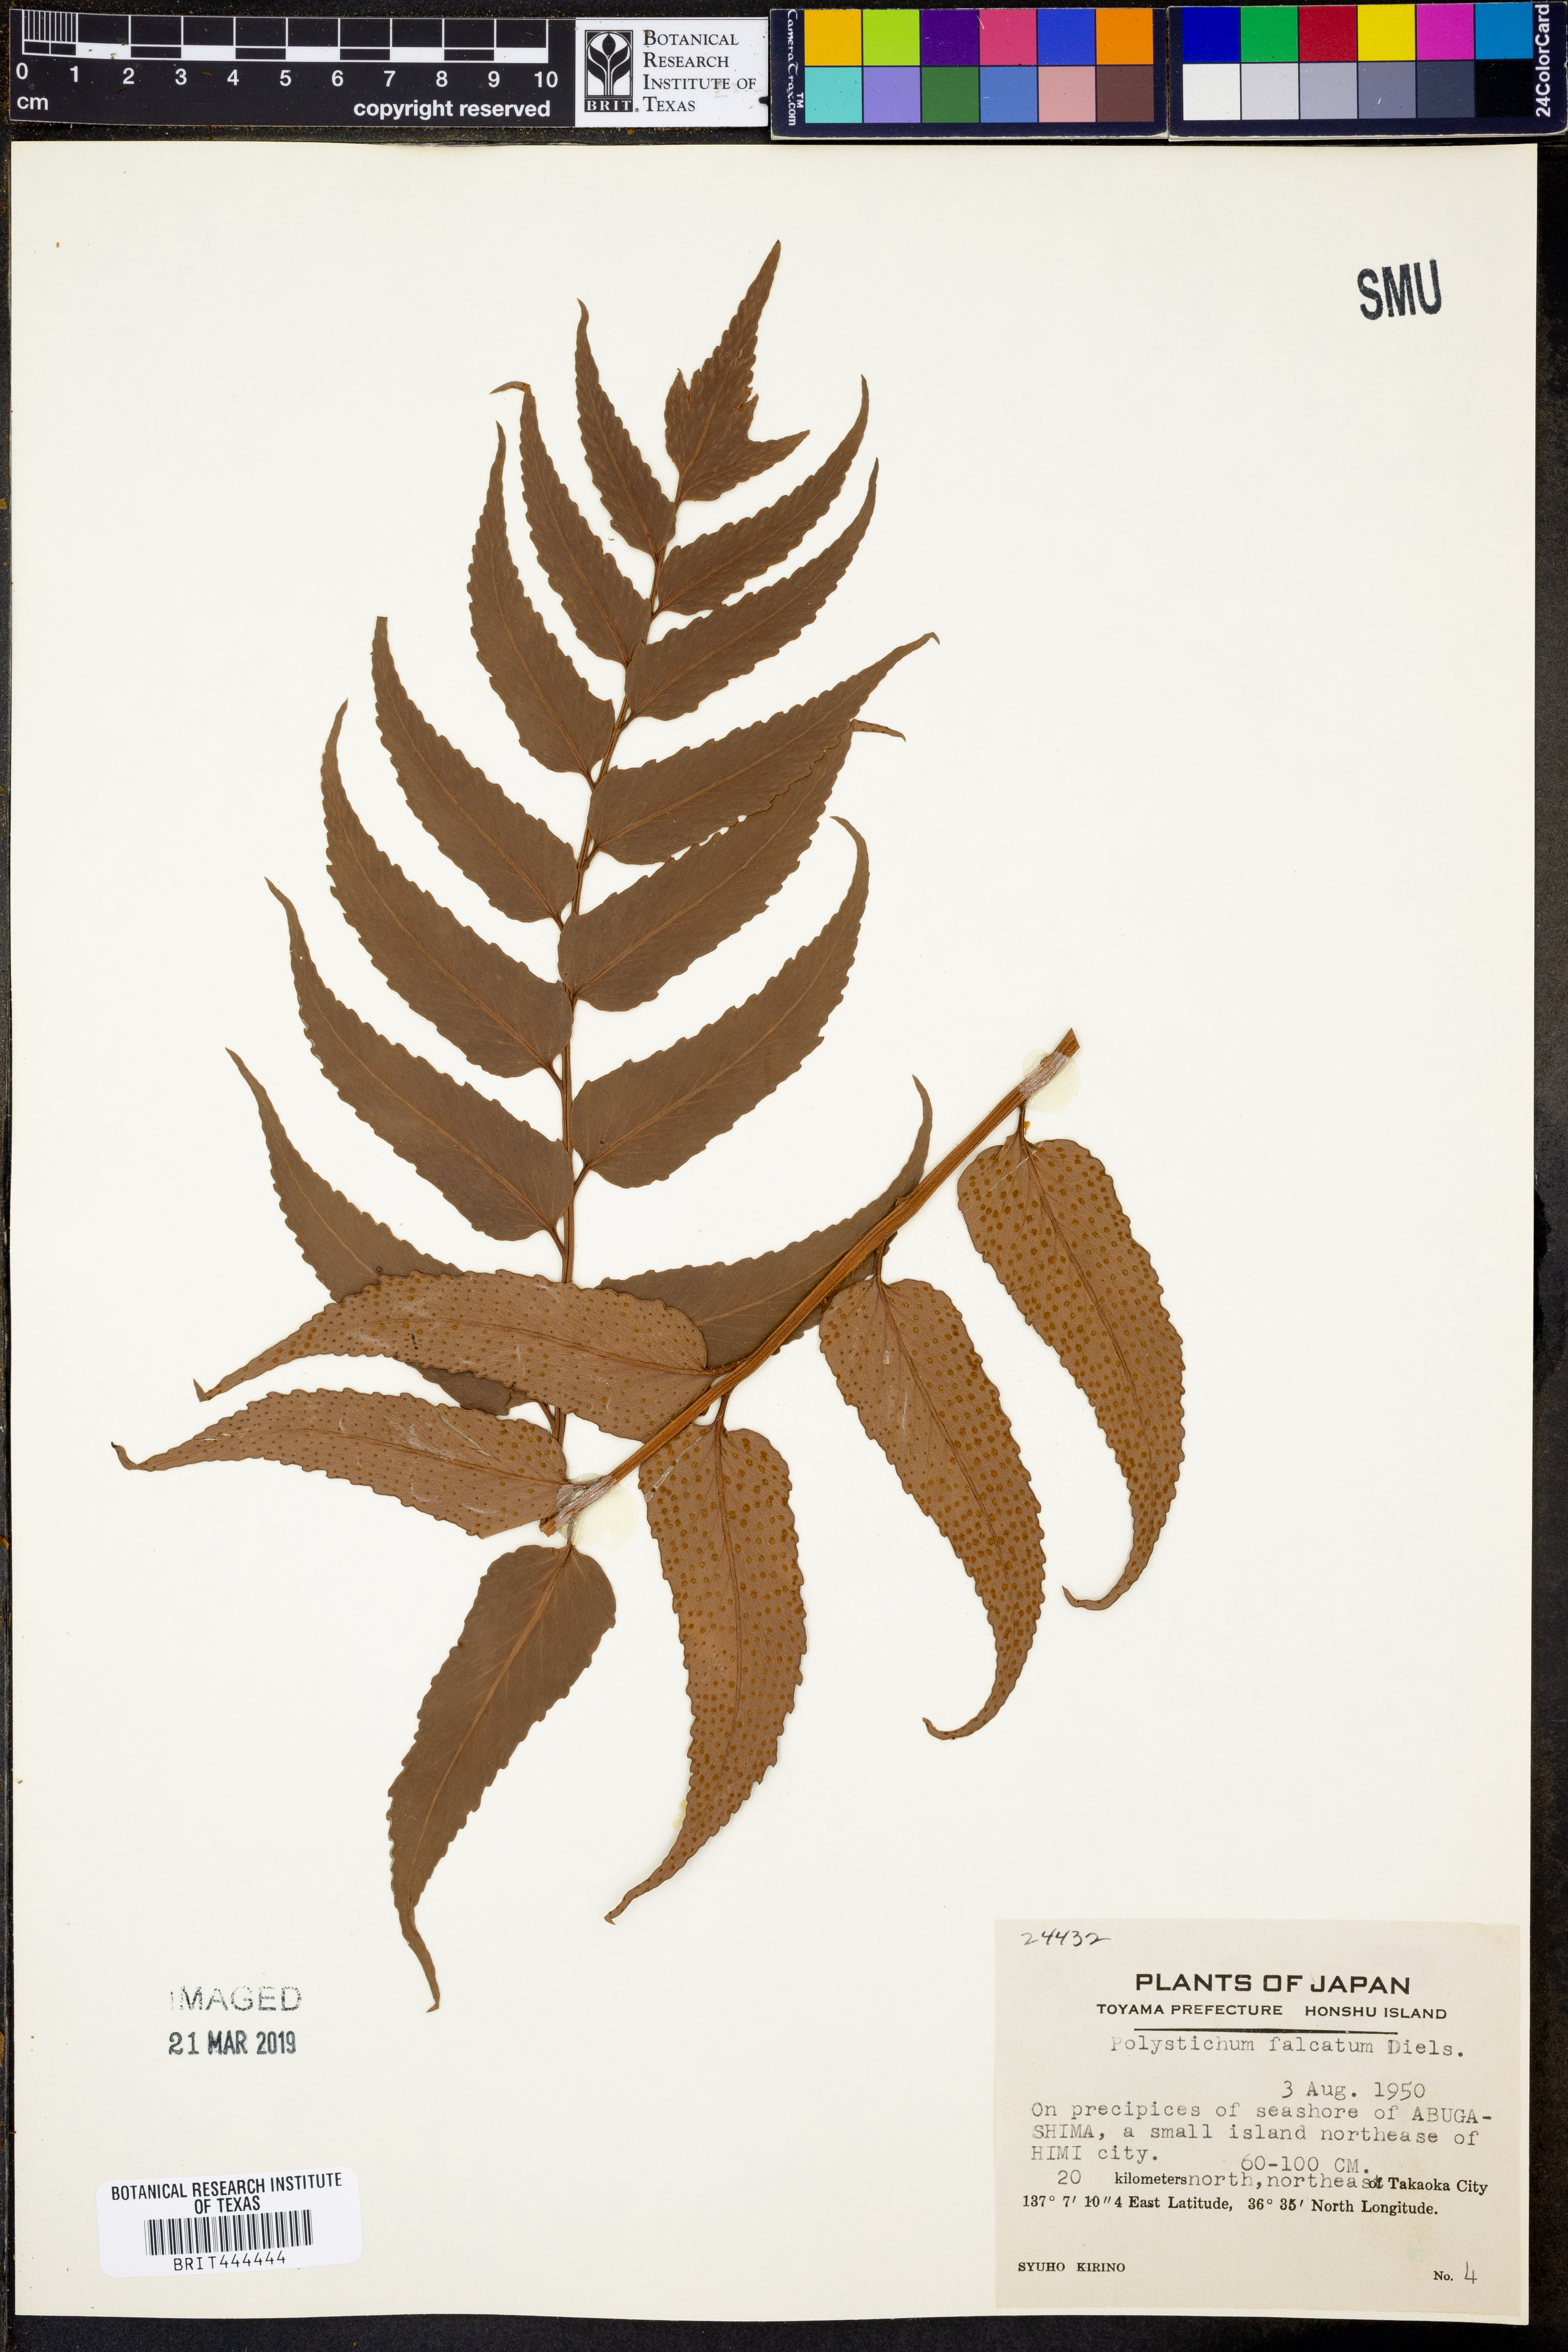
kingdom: Plantae
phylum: Tracheophyta
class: Polypodiopsida
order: Polypodiales
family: Dryopteridaceae
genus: Cyrtomium
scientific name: Cyrtomium falcatum
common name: House holly-fern
